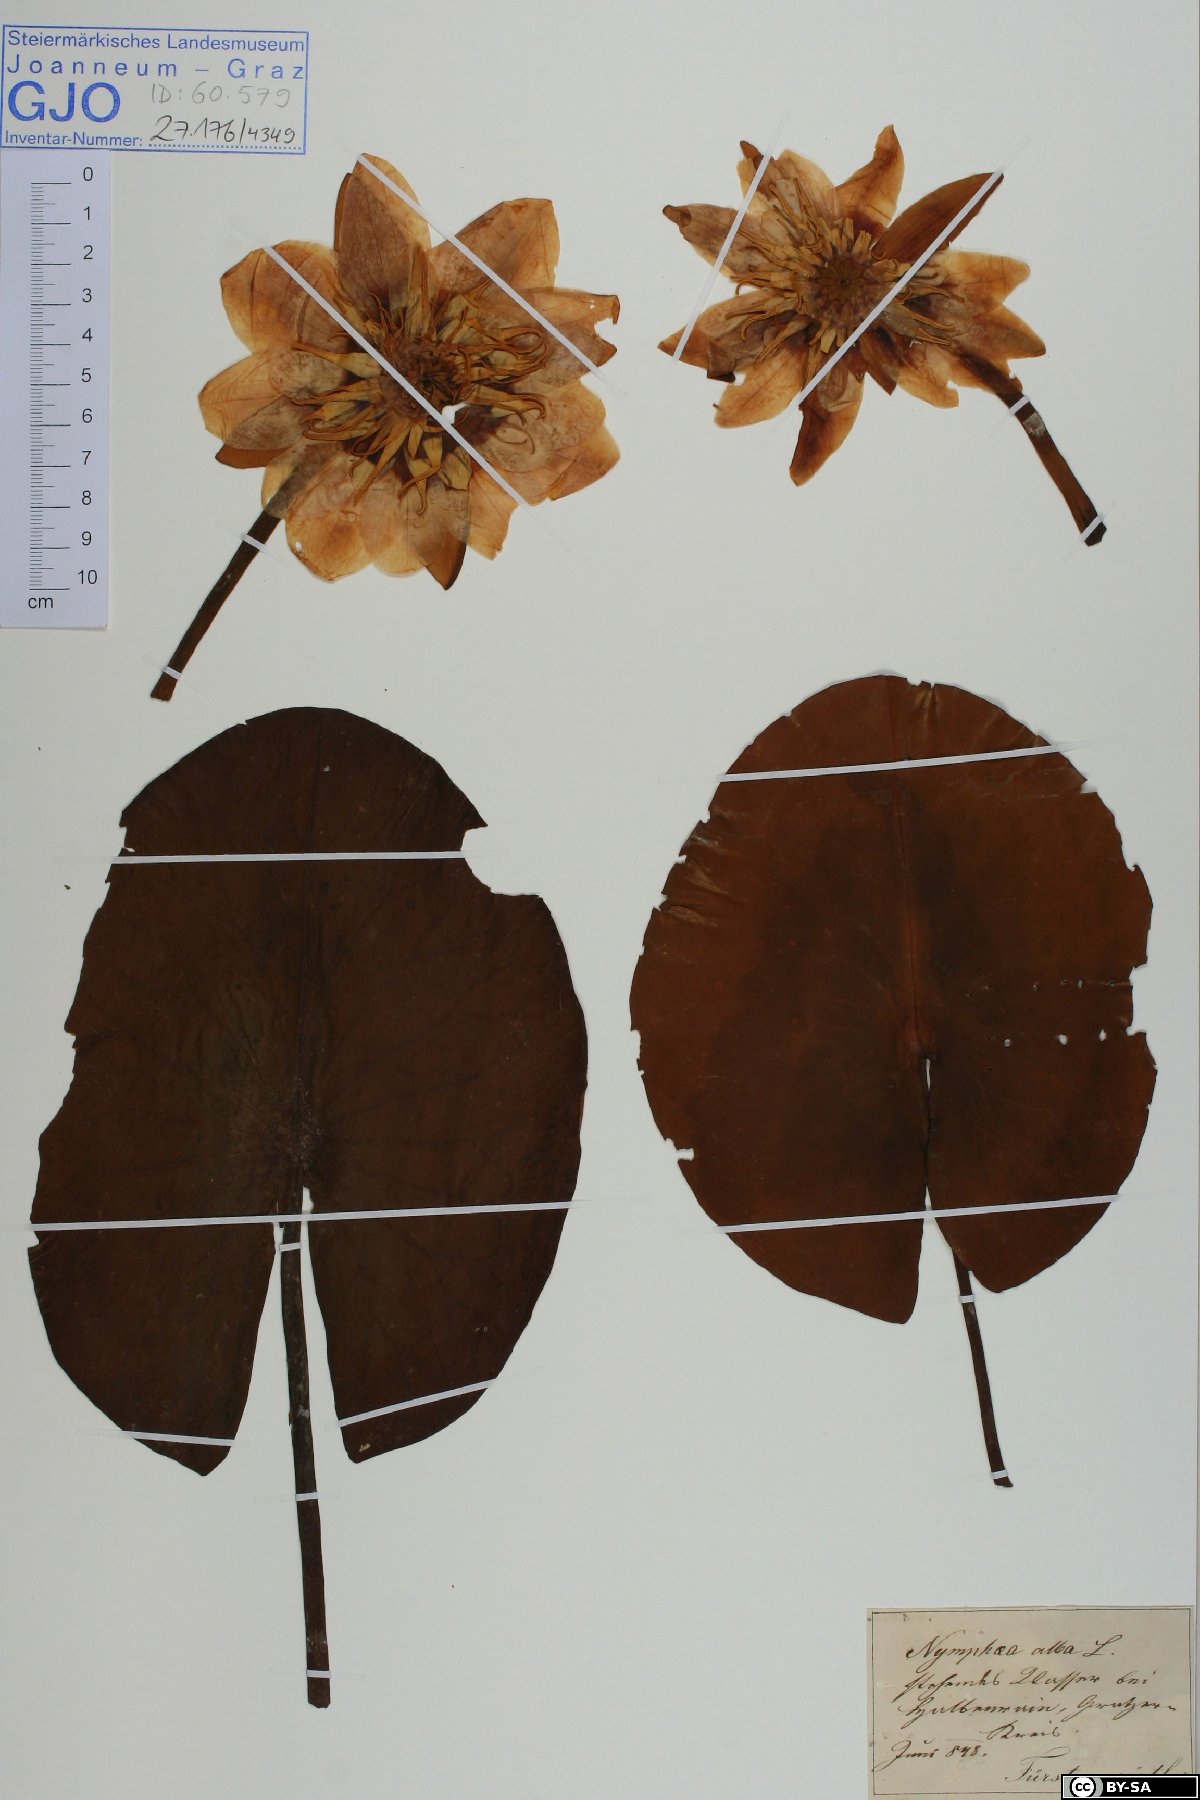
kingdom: Plantae
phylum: Tracheophyta
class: Magnoliopsida
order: Nymphaeales
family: Nymphaeaceae
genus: Nymphaea
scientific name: Nymphaea alba
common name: White water-lily
